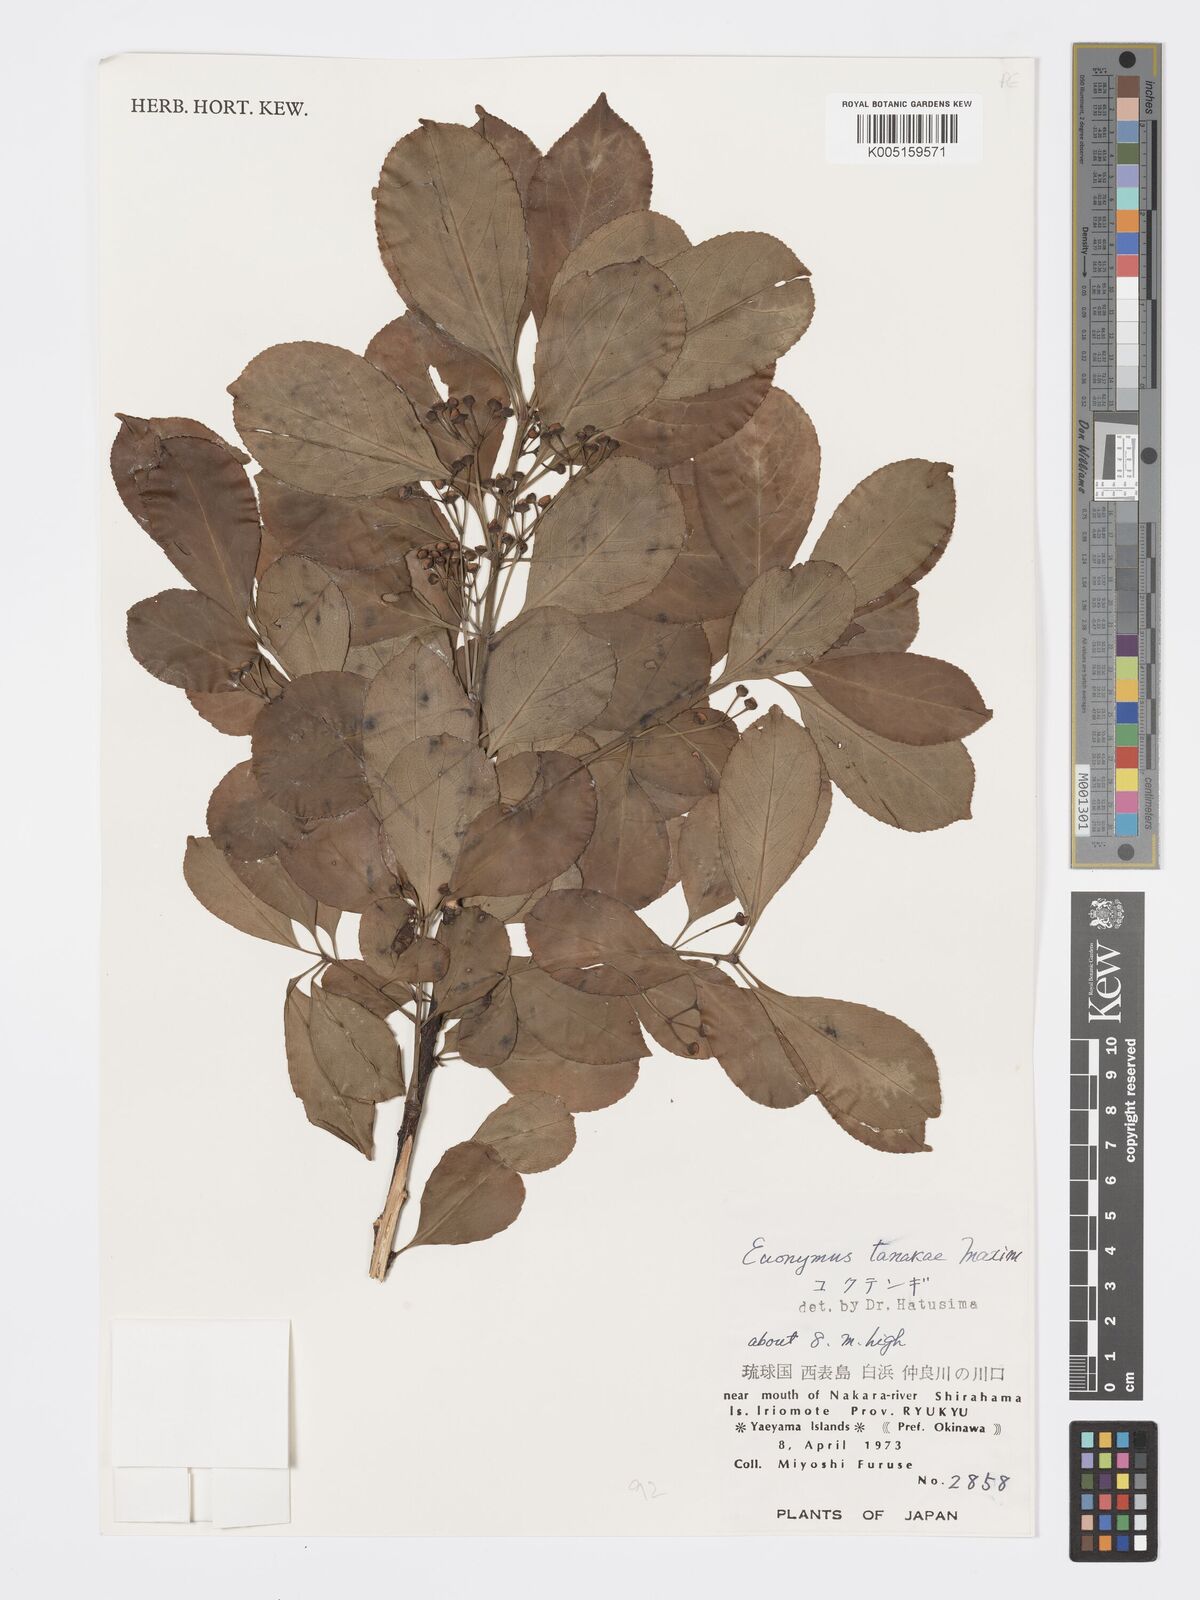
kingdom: Plantae
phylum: Tracheophyta
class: Magnoliopsida
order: Celastrales
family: Celastraceae
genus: Euonymus
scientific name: Euonymus carnosus
